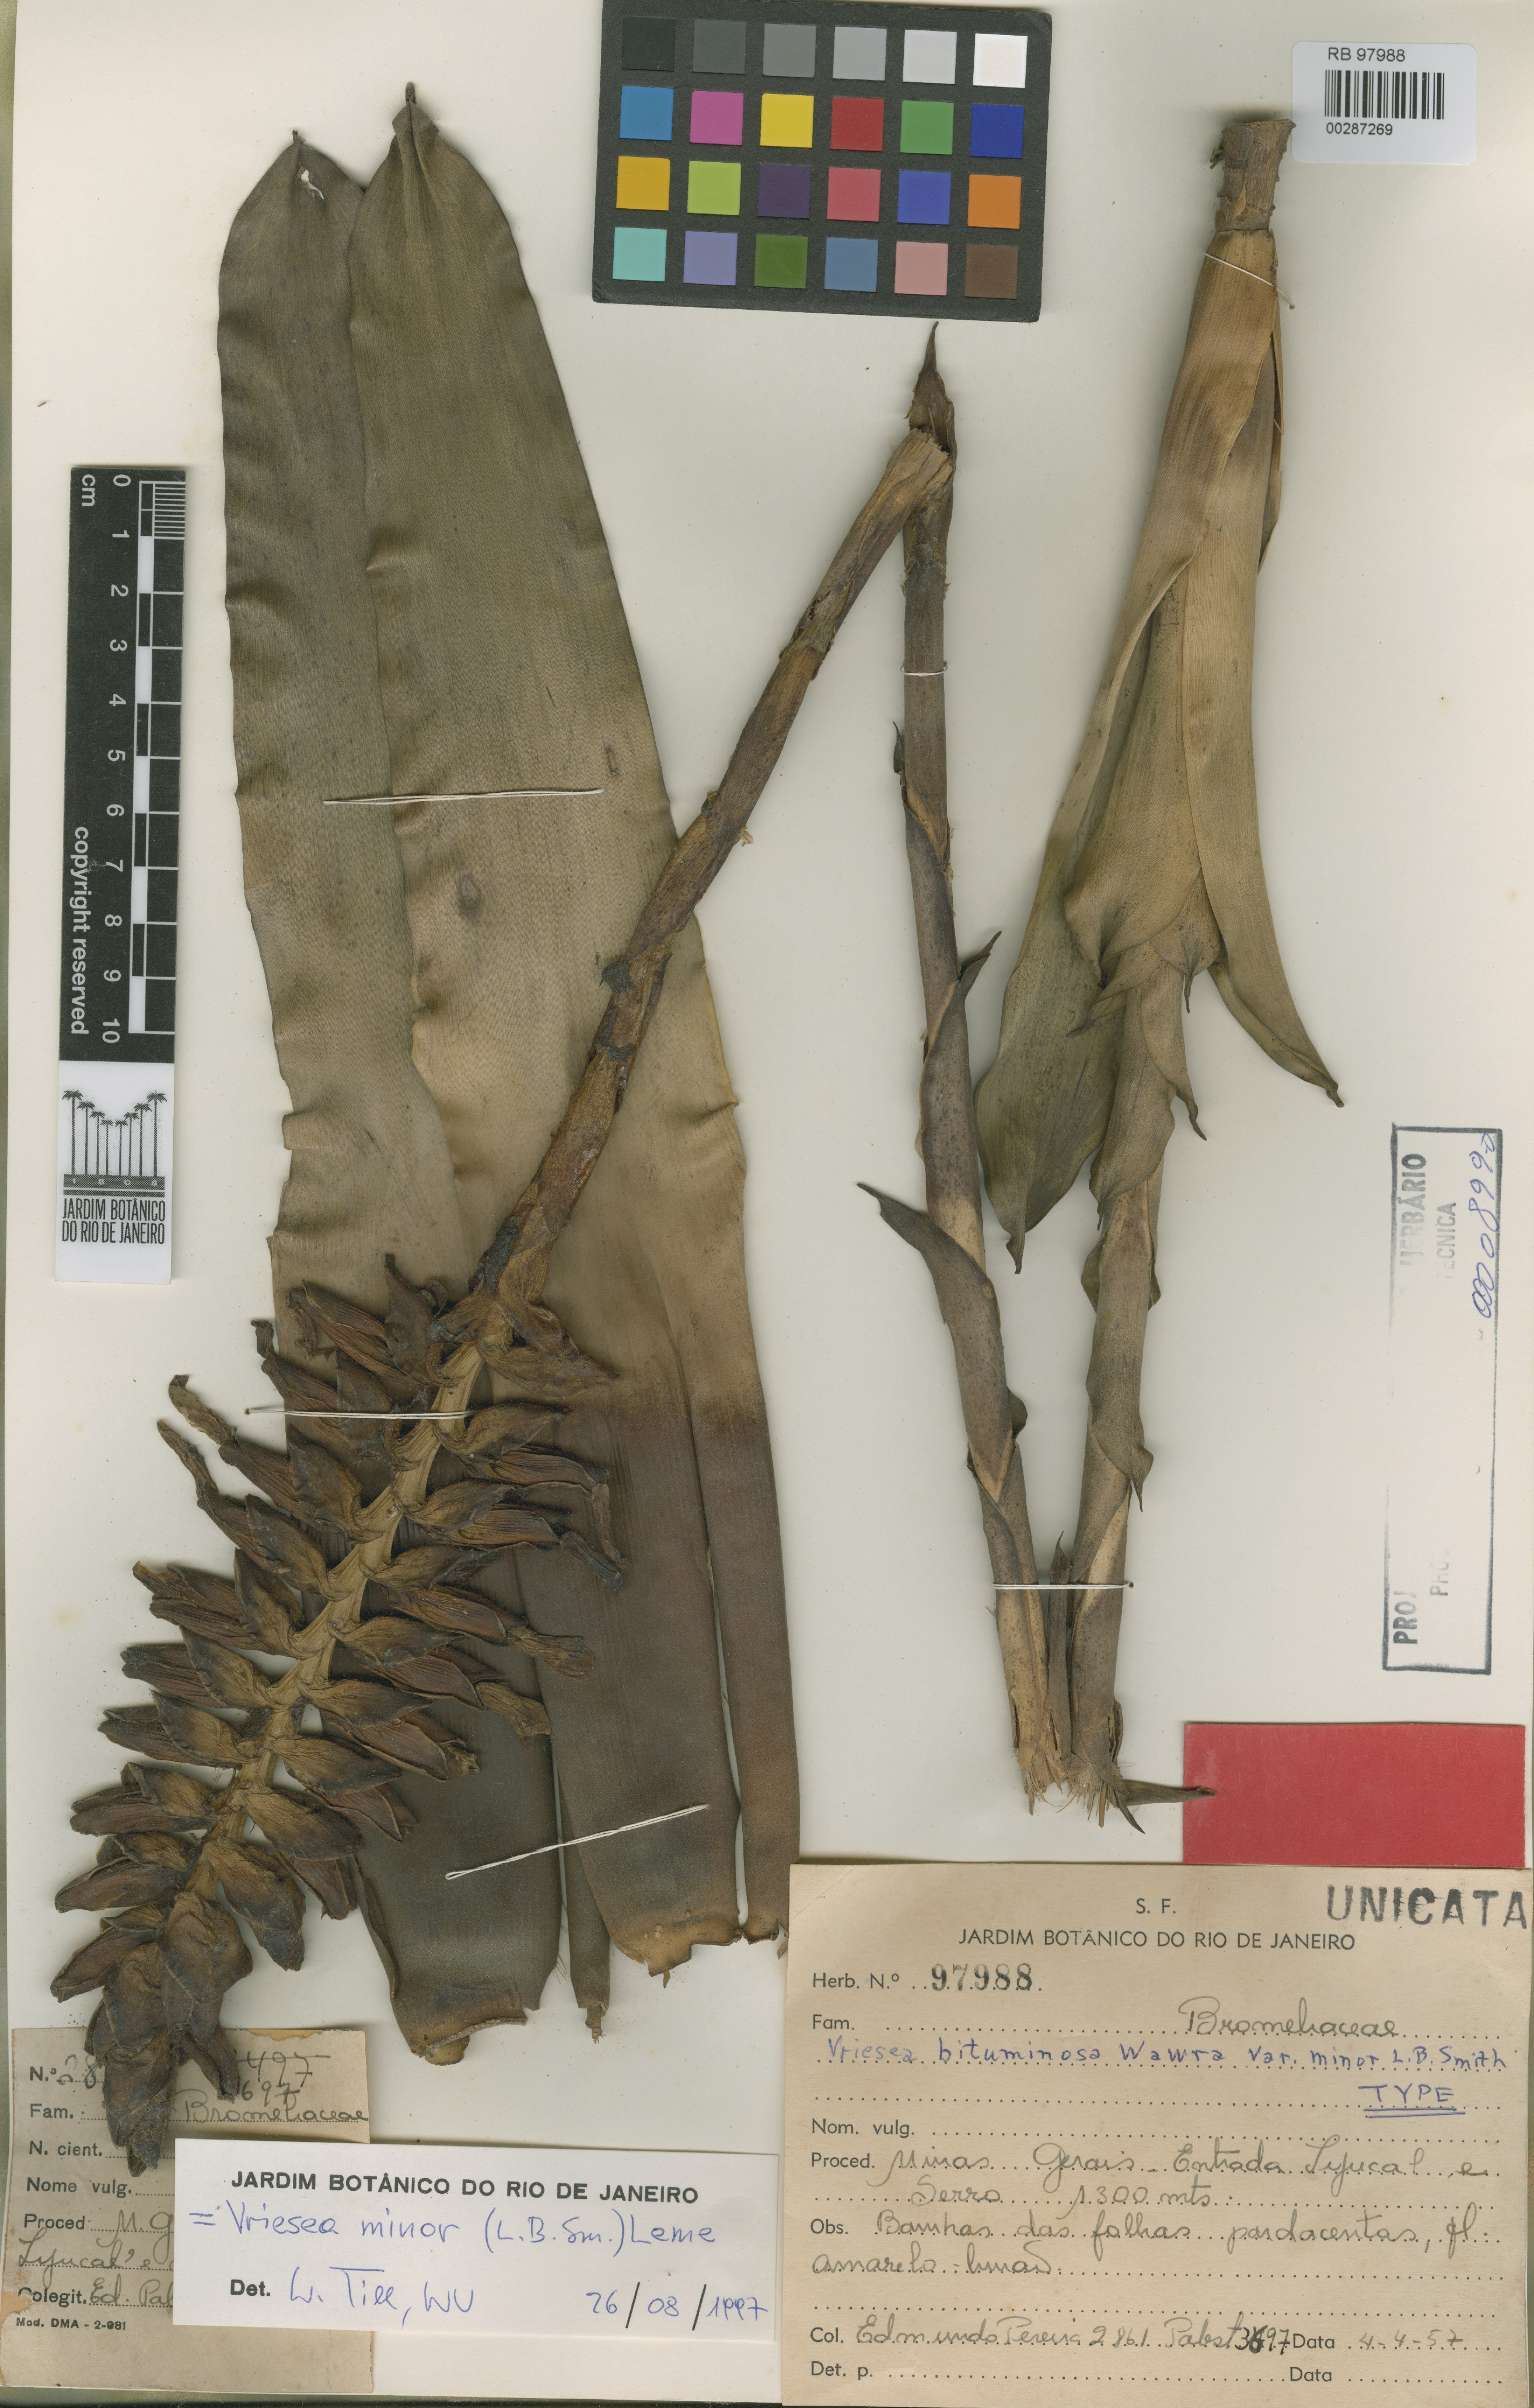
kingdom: Plantae
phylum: Tracheophyta
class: Liliopsida
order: Poales
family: Bromeliaceae
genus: Vriesea
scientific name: Vriesea minor
